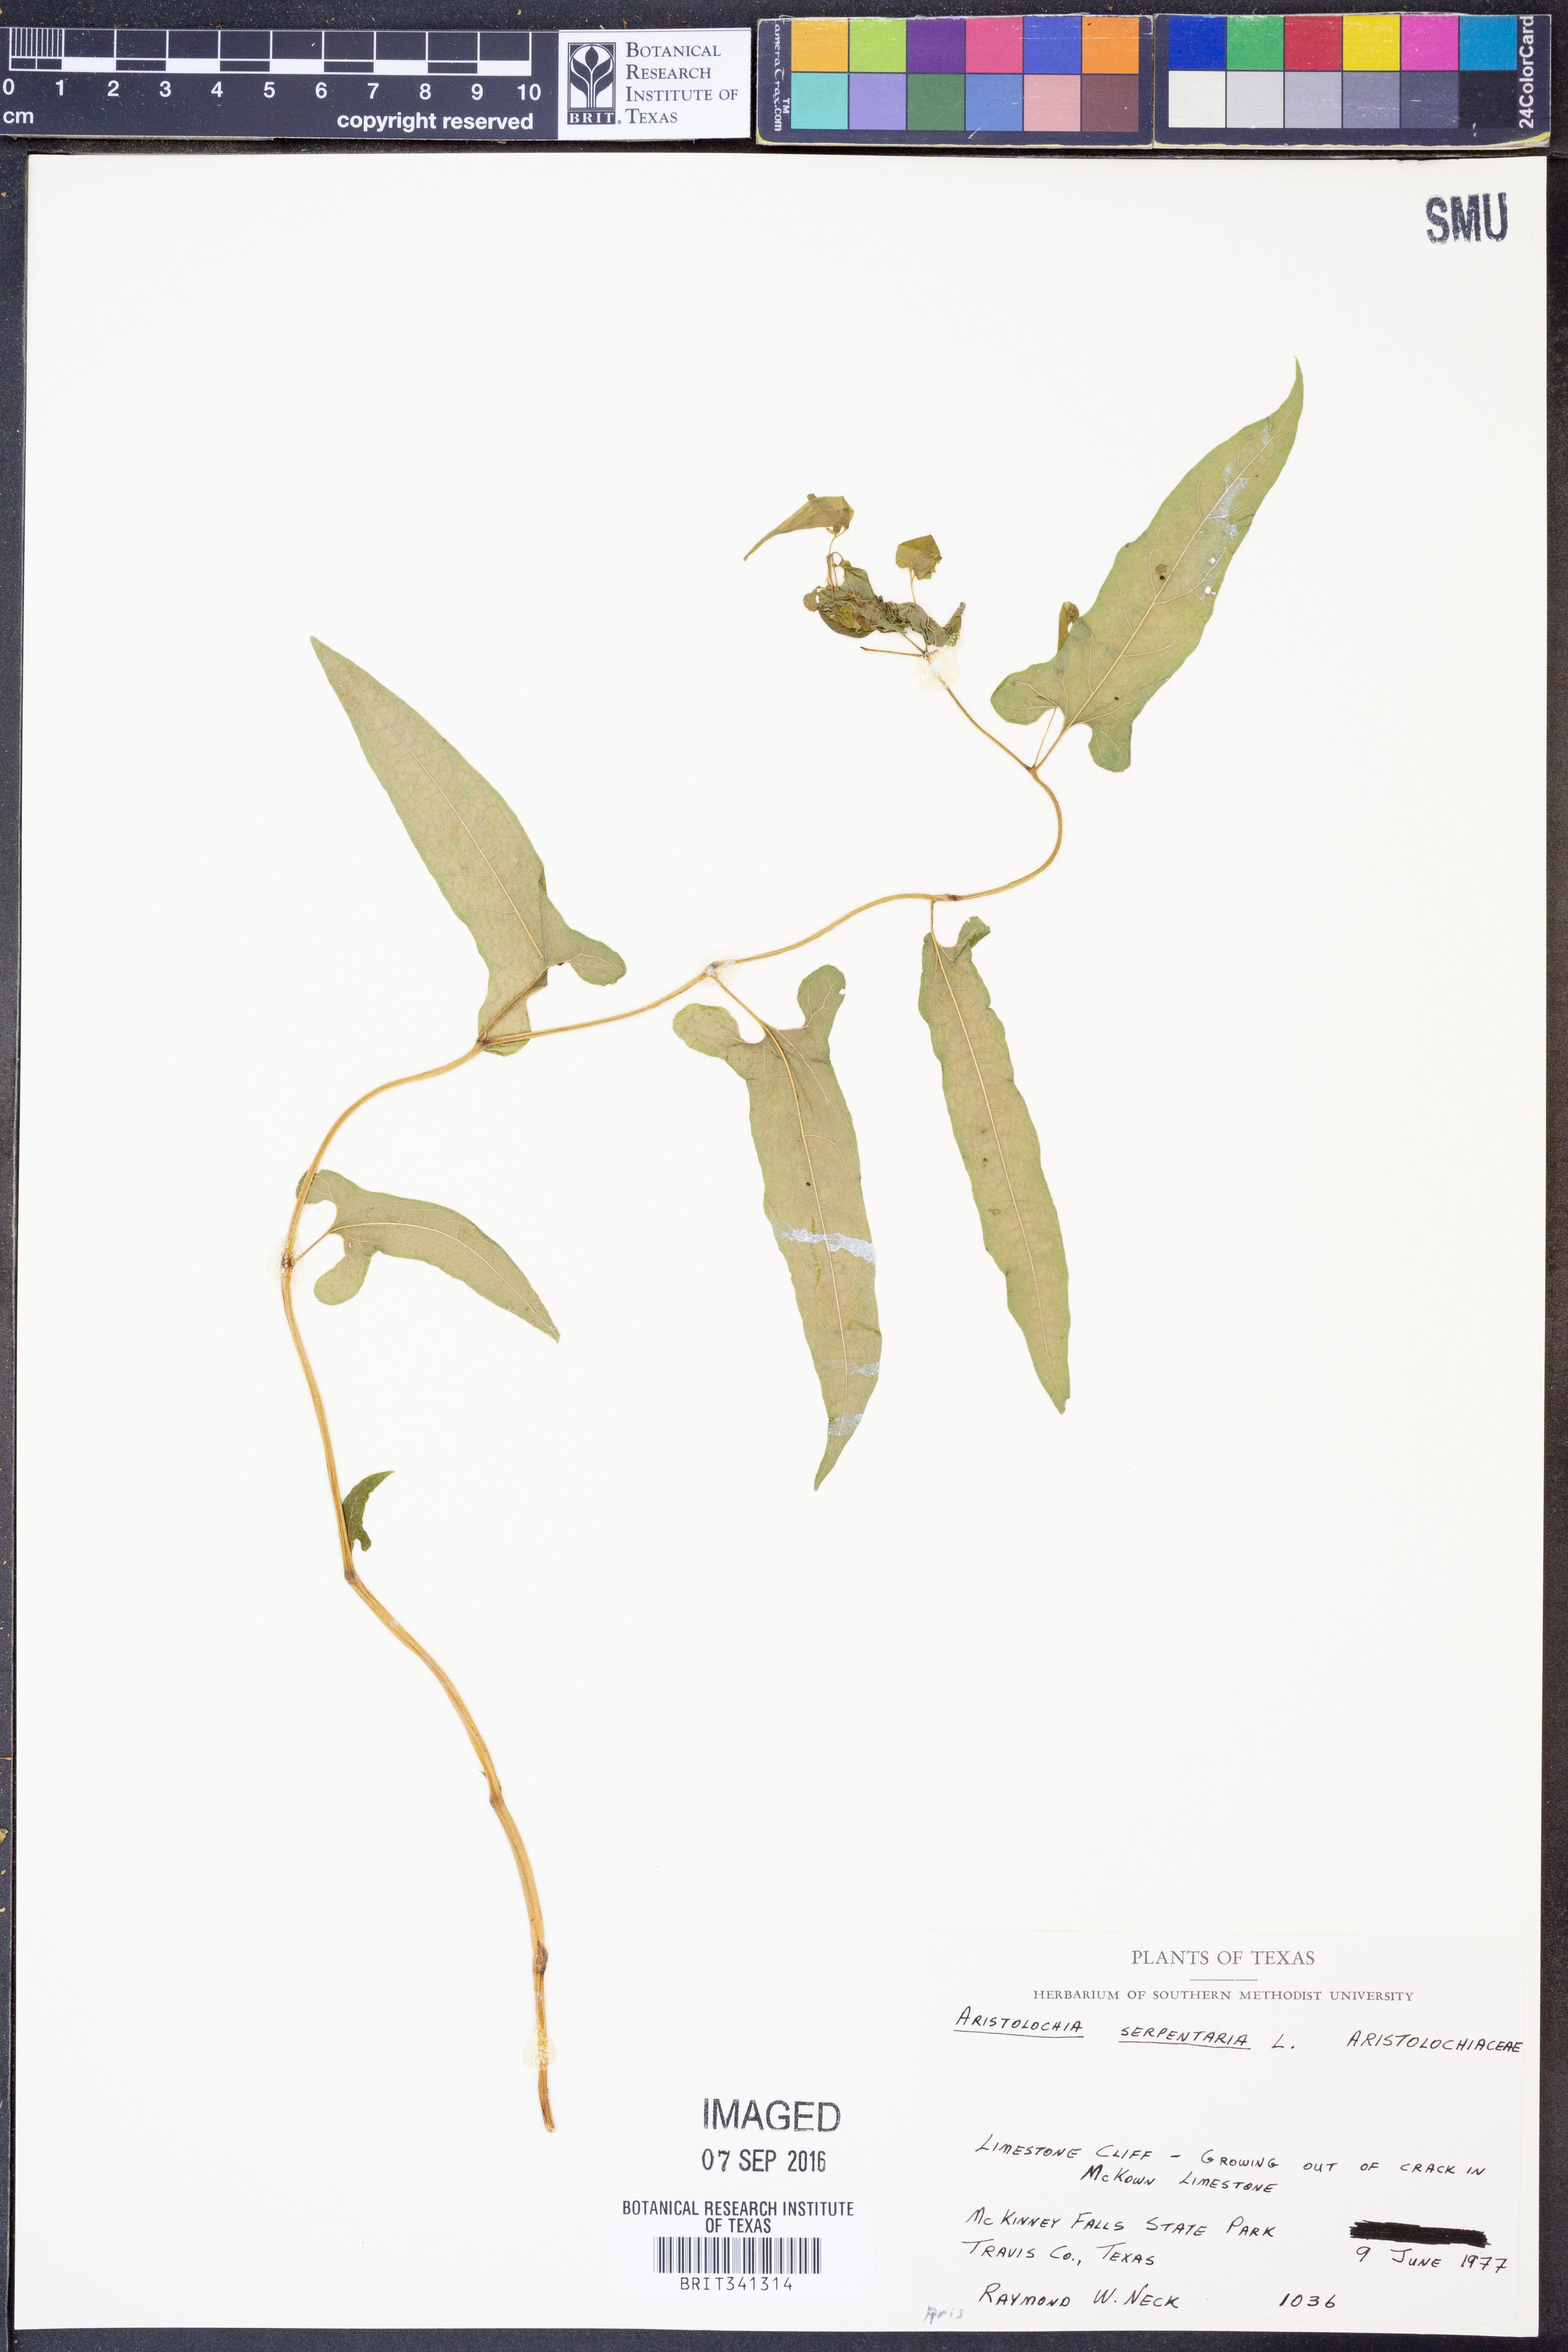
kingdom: Plantae
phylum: Tracheophyta
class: Magnoliopsida
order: Piperales
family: Aristolochiaceae
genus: Endodeca
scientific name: Endodeca serpentaria
